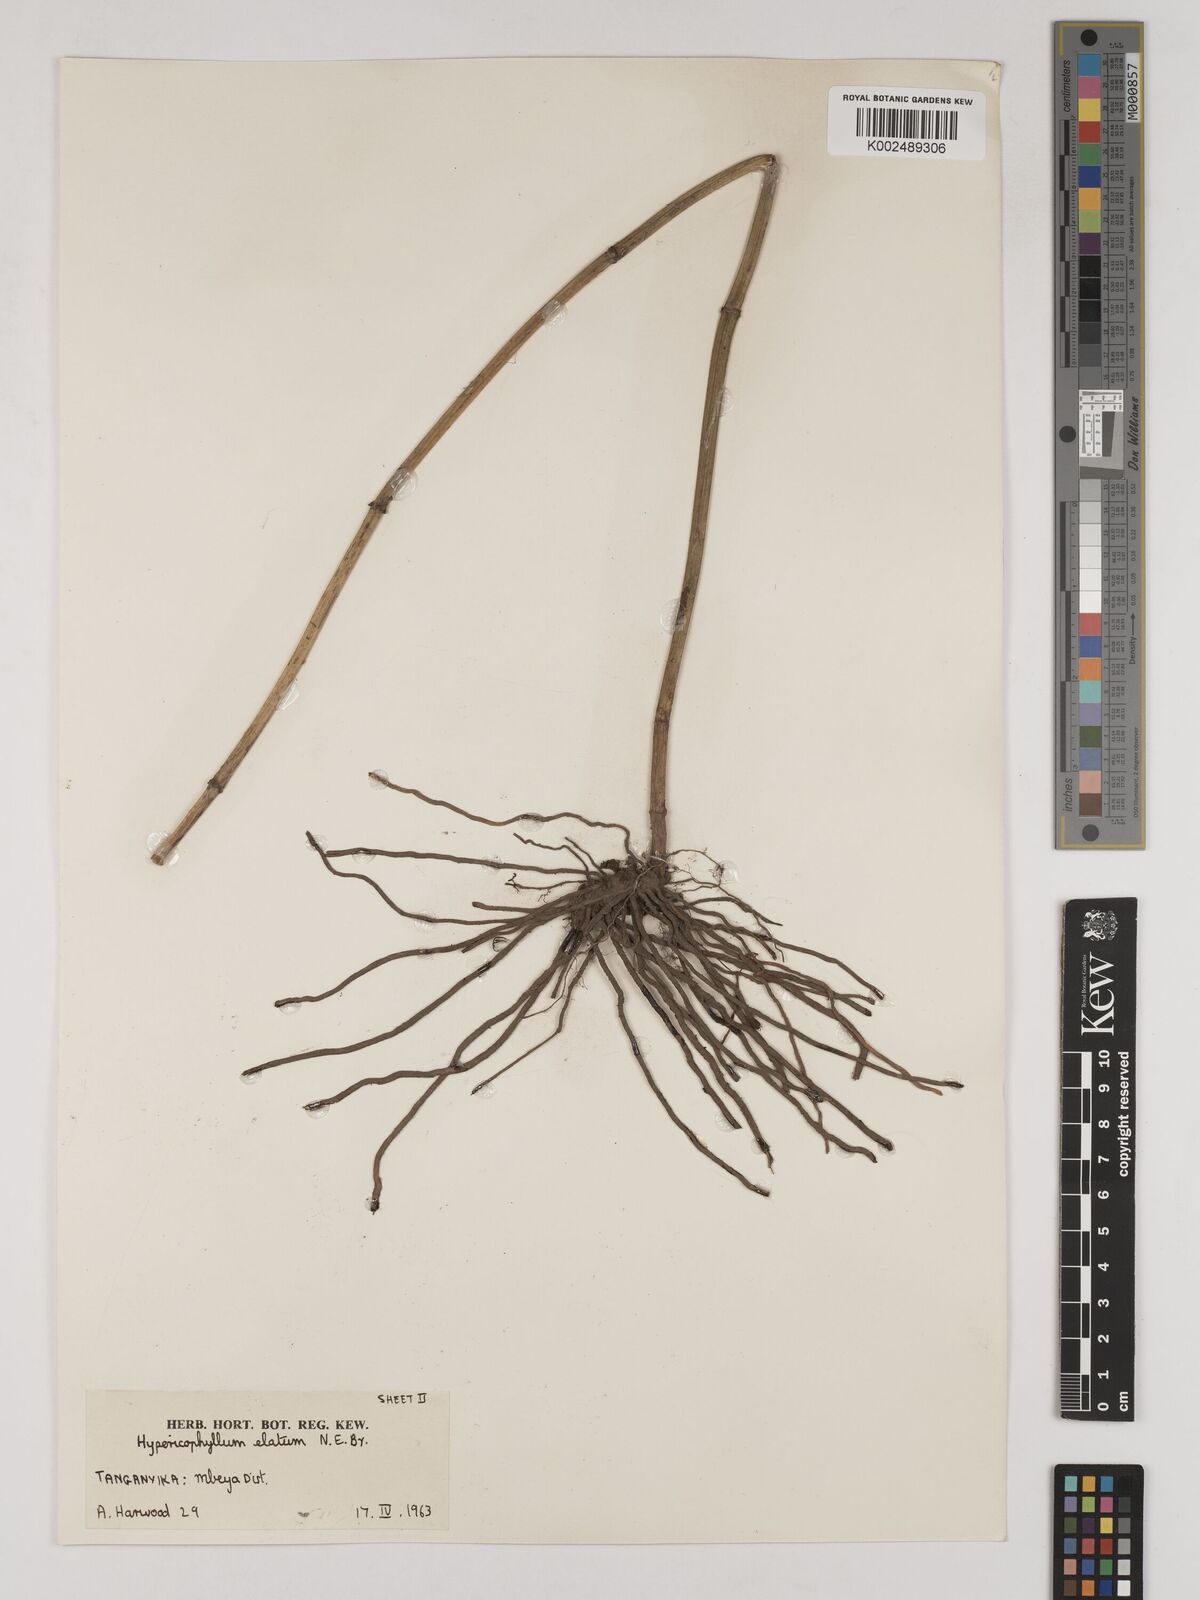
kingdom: Plantae
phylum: Tracheophyta
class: Magnoliopsida
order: Asterales
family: Asteraceae
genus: Hypericophyllum
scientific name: Hypericophyllum elatum
